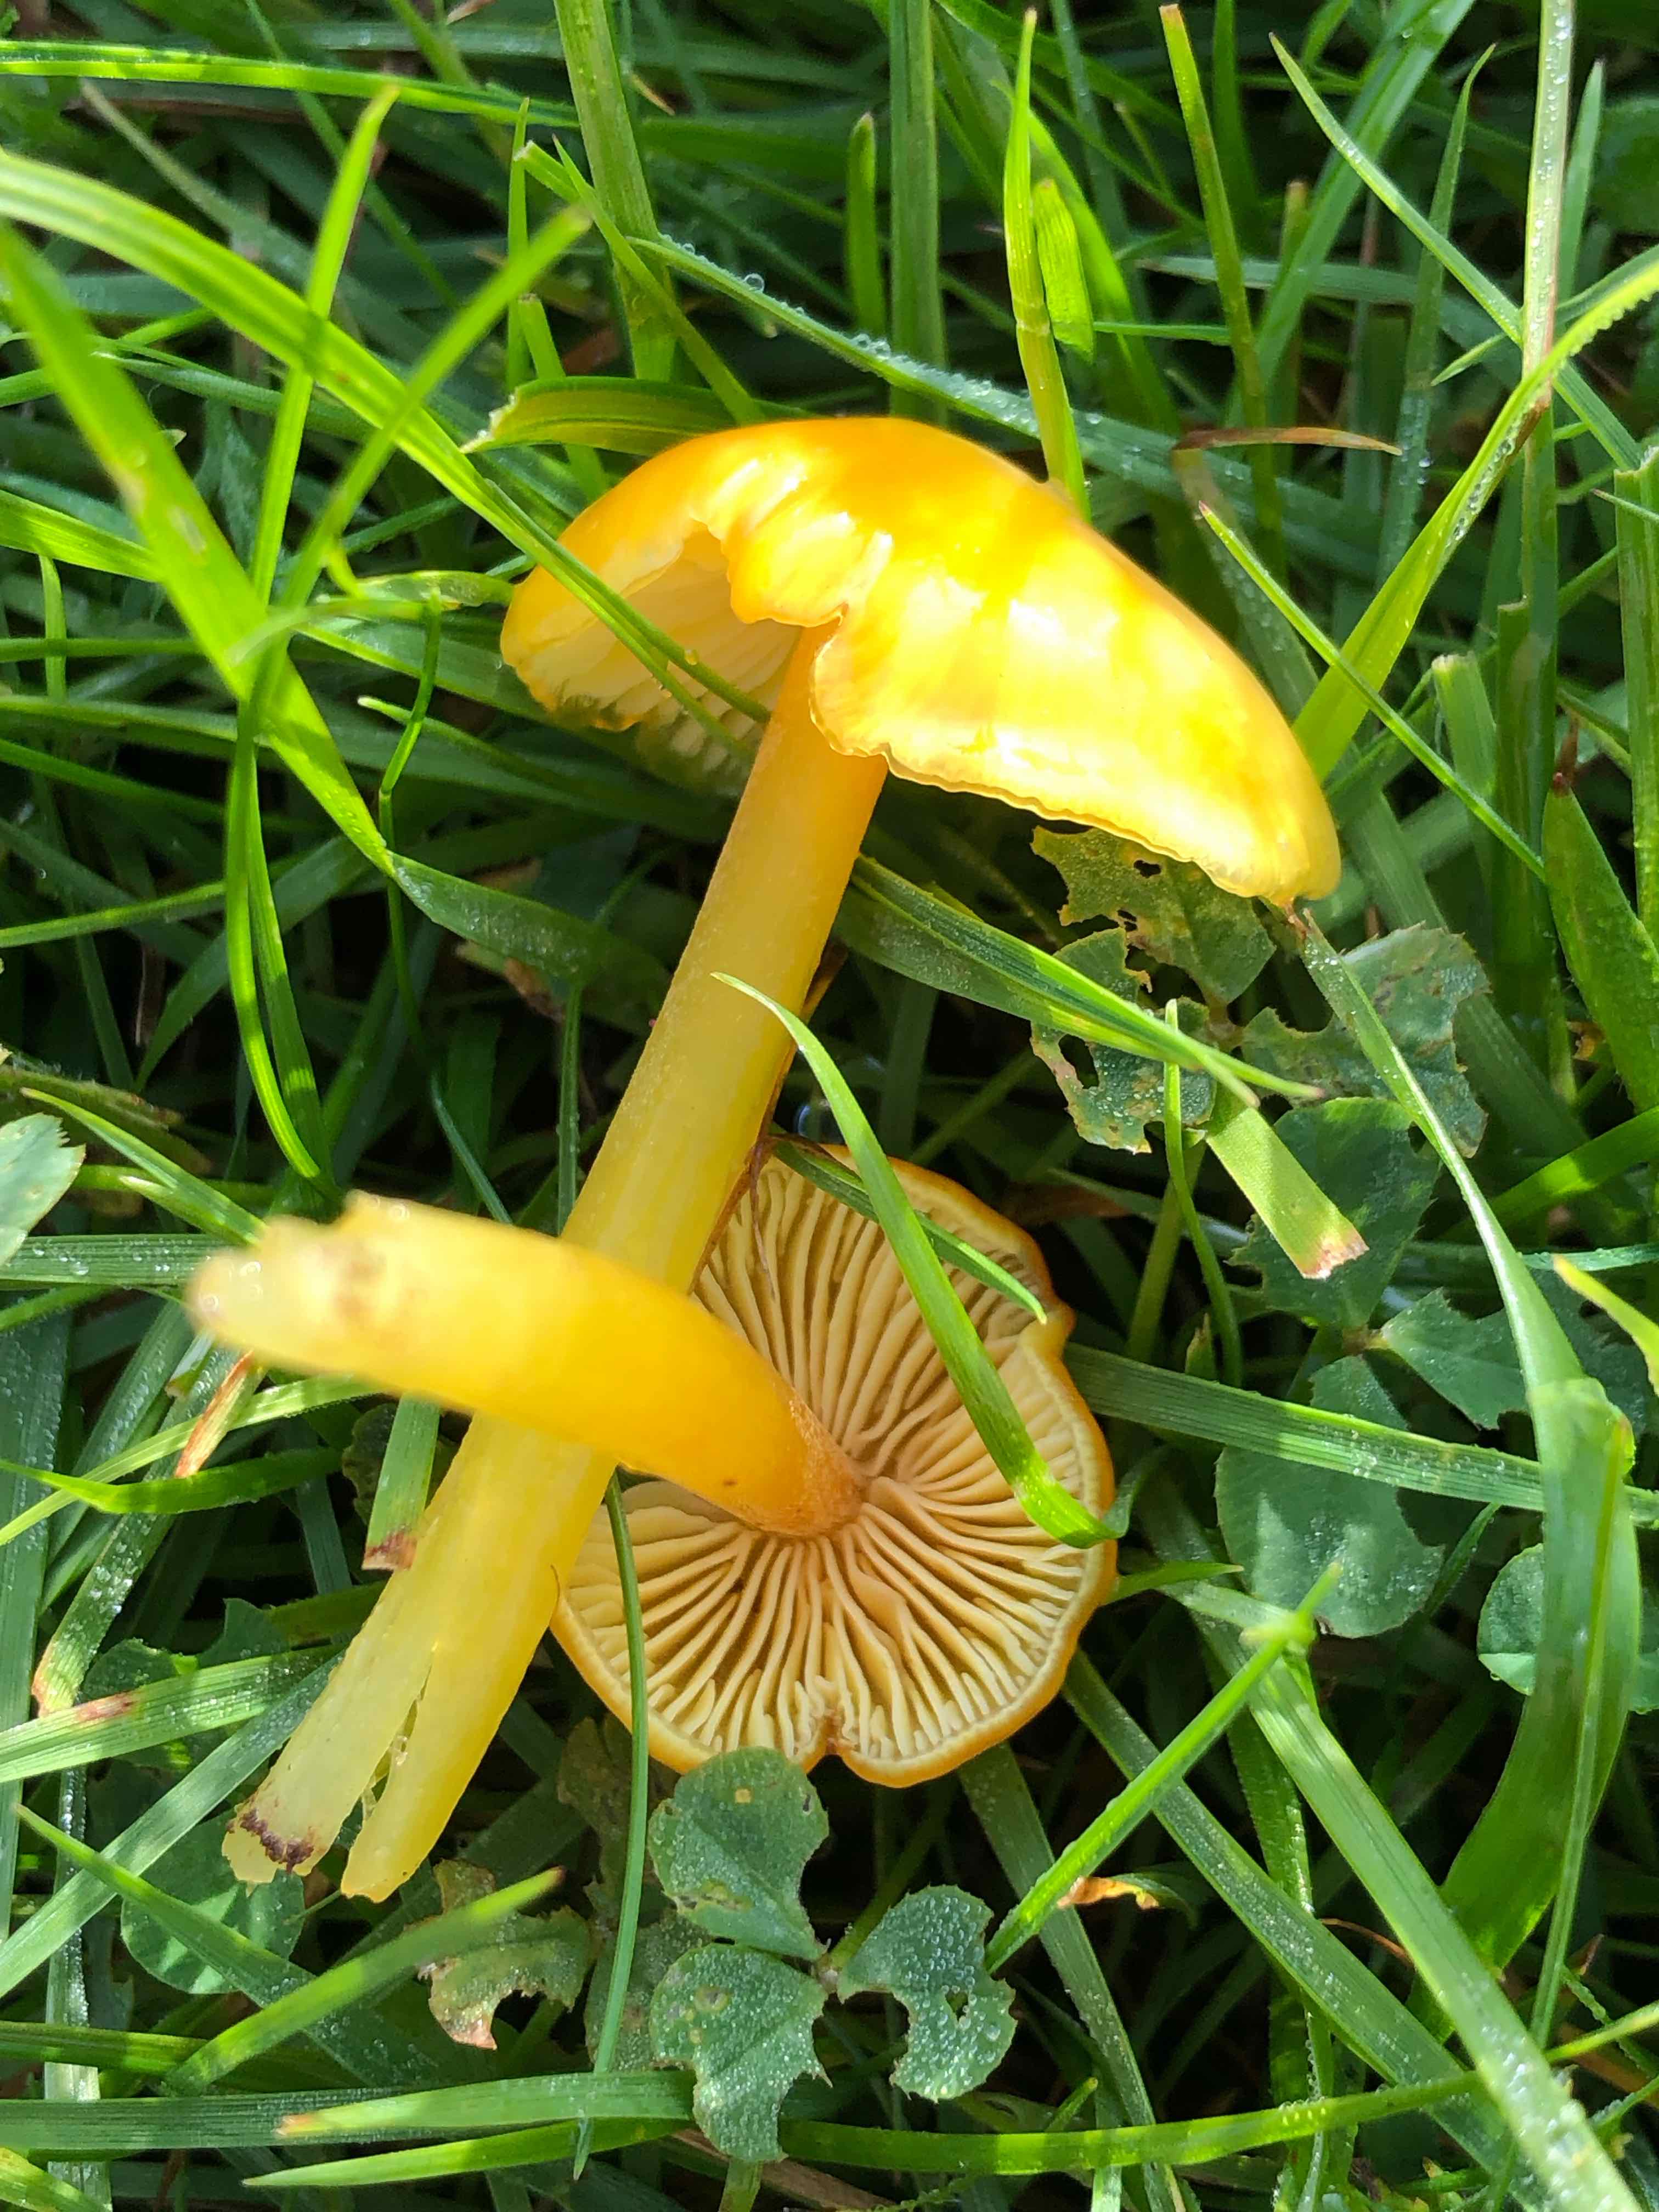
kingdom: Fungi
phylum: Basidiomycota
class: Agaricomycetes
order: Agaricales
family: Hygrophoraceae
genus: Hygrocybe
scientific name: Hygrocybe chlorophana
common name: gul vokshat
